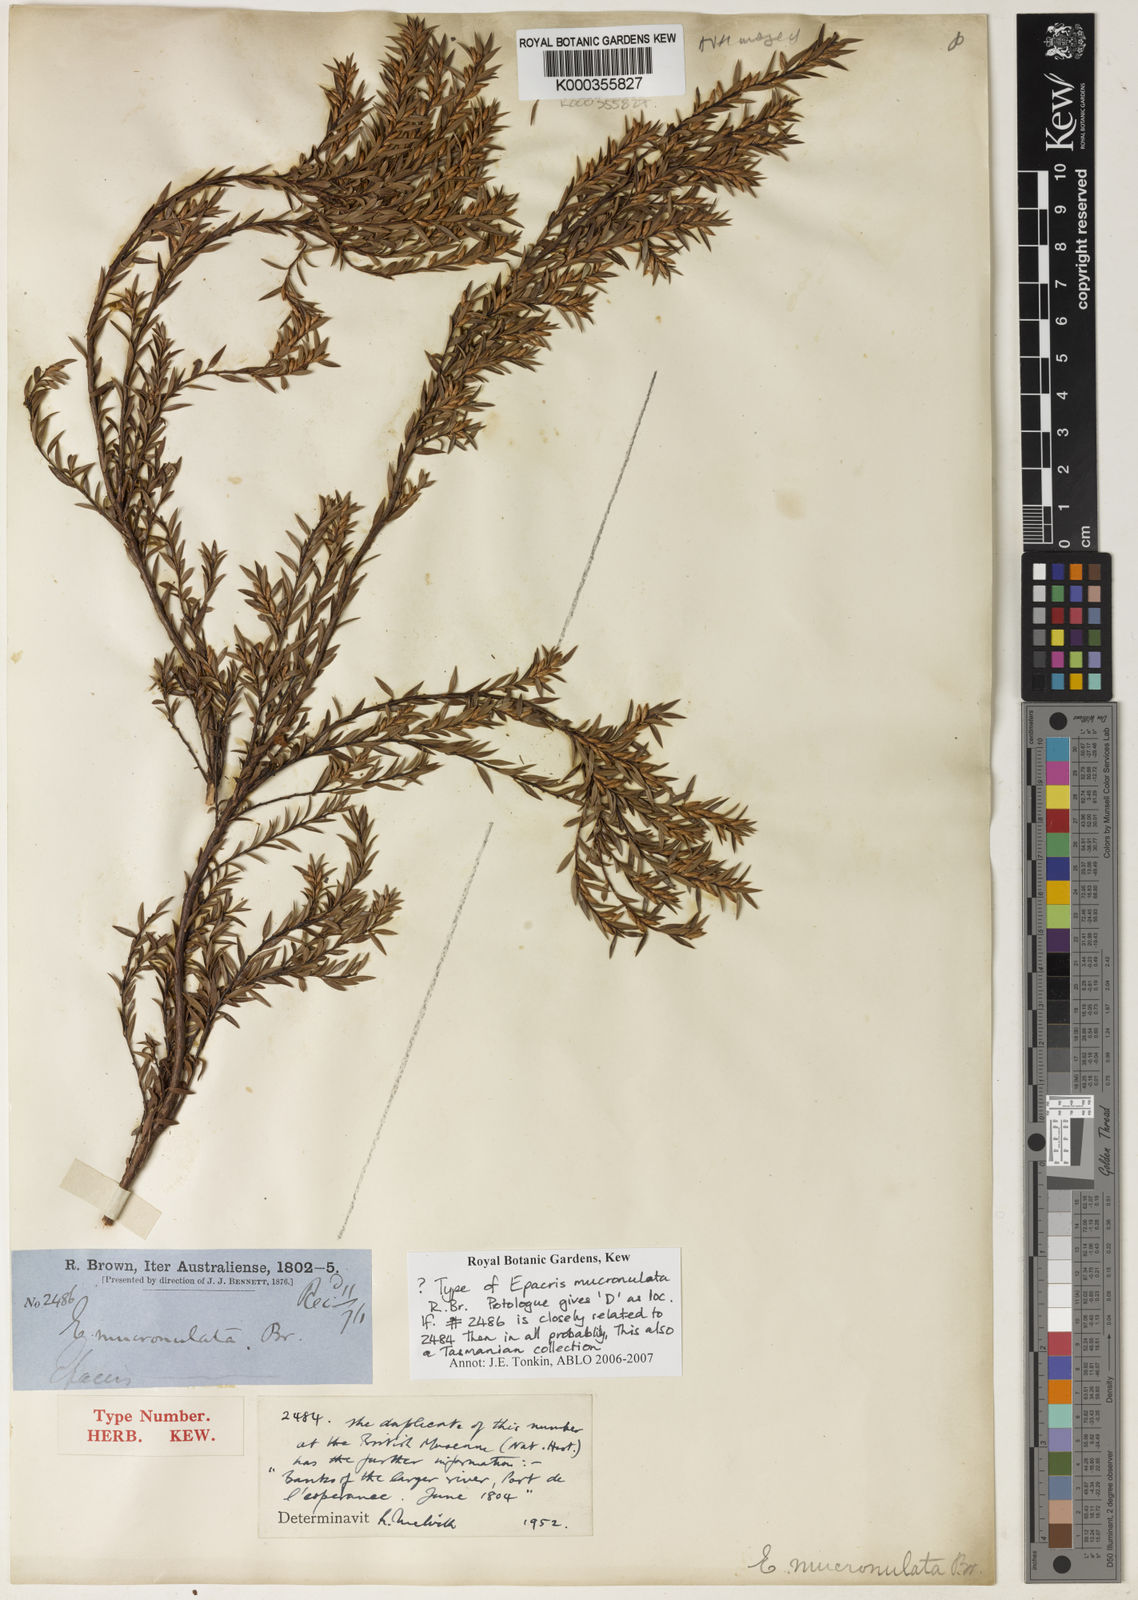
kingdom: Plantae
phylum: Tracheophyta
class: Magnoliopsida
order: Ericales
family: Ericaceae
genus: Epacris
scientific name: Epacris mucronulata
